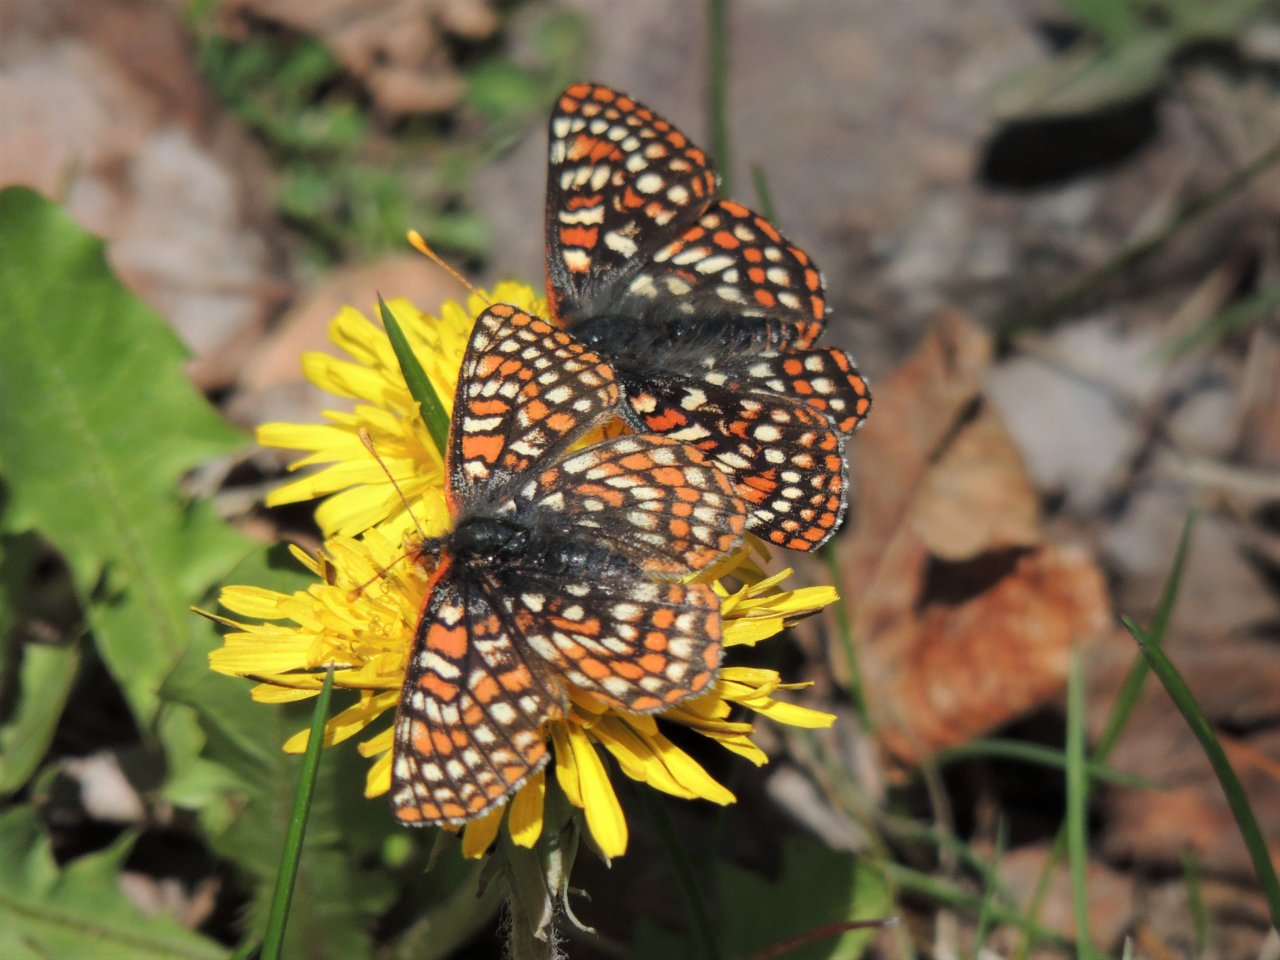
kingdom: Animalia
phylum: Arthropoda
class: Insecta
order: Lepidoptera
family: Nymphalidae
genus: Occidryas
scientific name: Occidryas anicia
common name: Anicia Checkerspot
